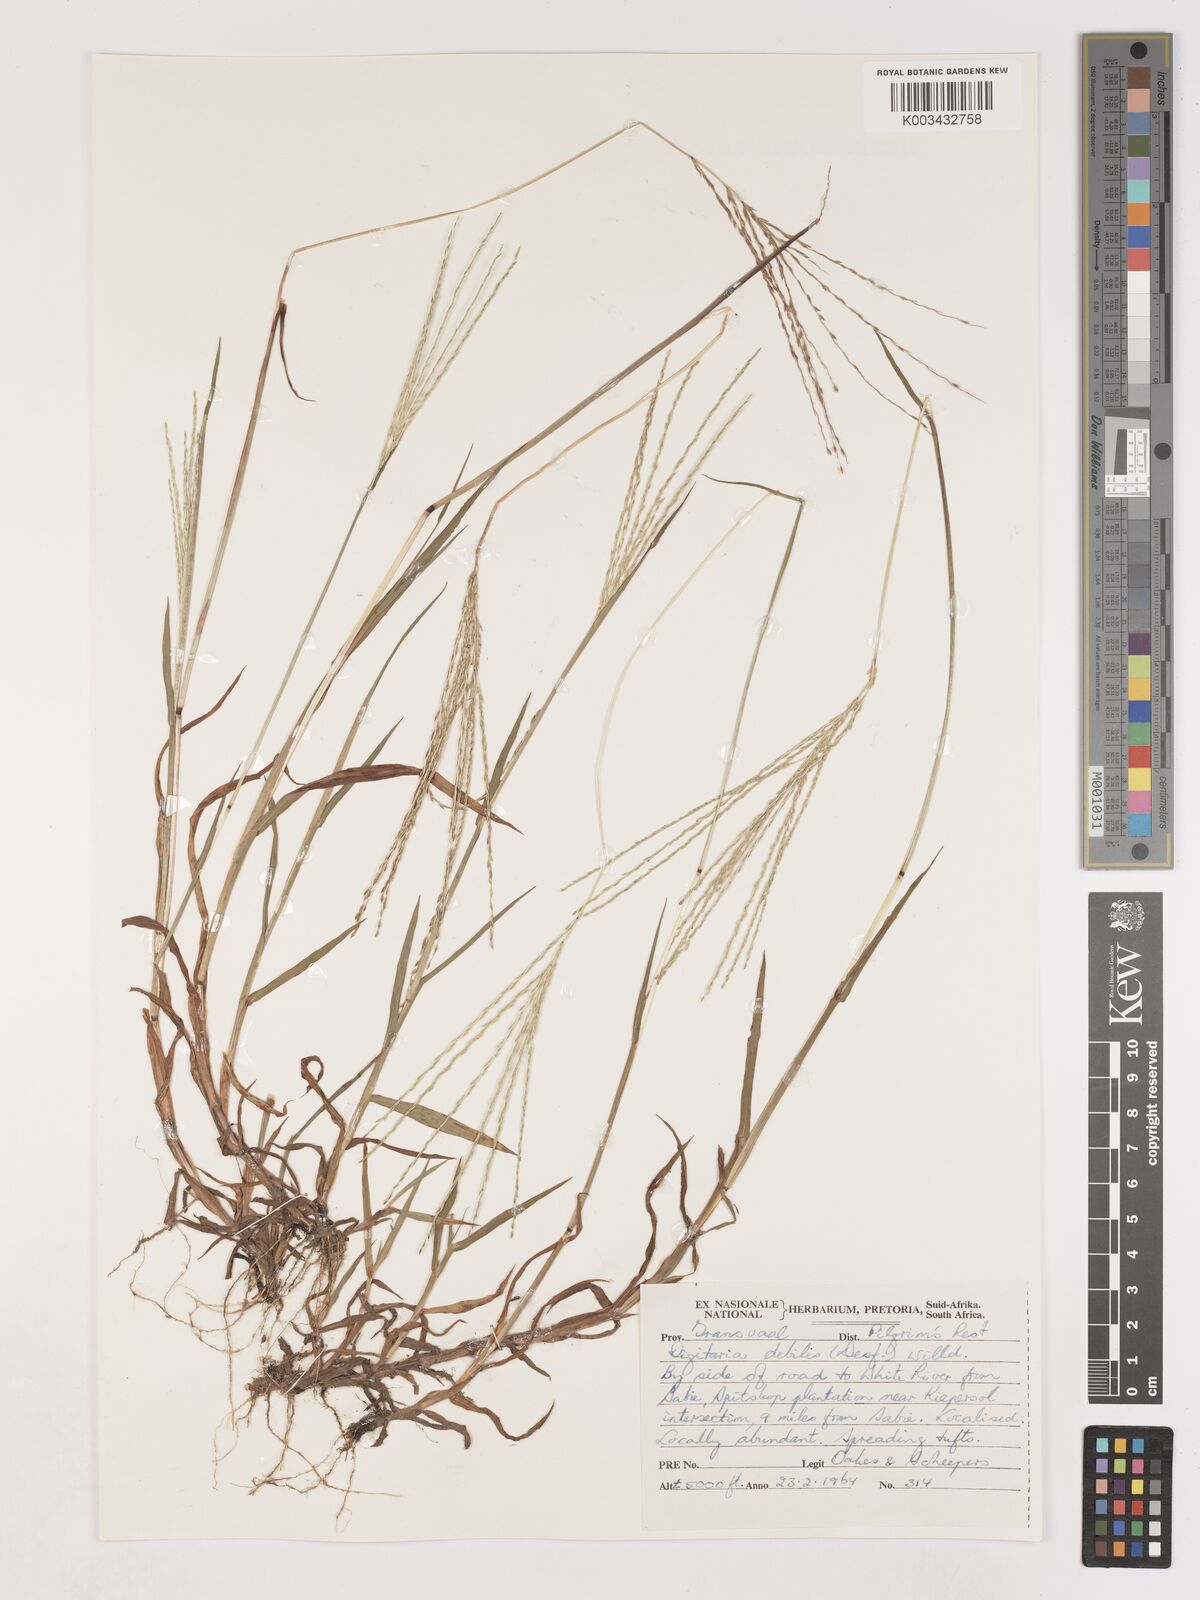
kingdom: Plantae
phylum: Tracheophyta
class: Liliopsida
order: Poales
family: Poaceae
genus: Digitaria
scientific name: Digitaria debilis
